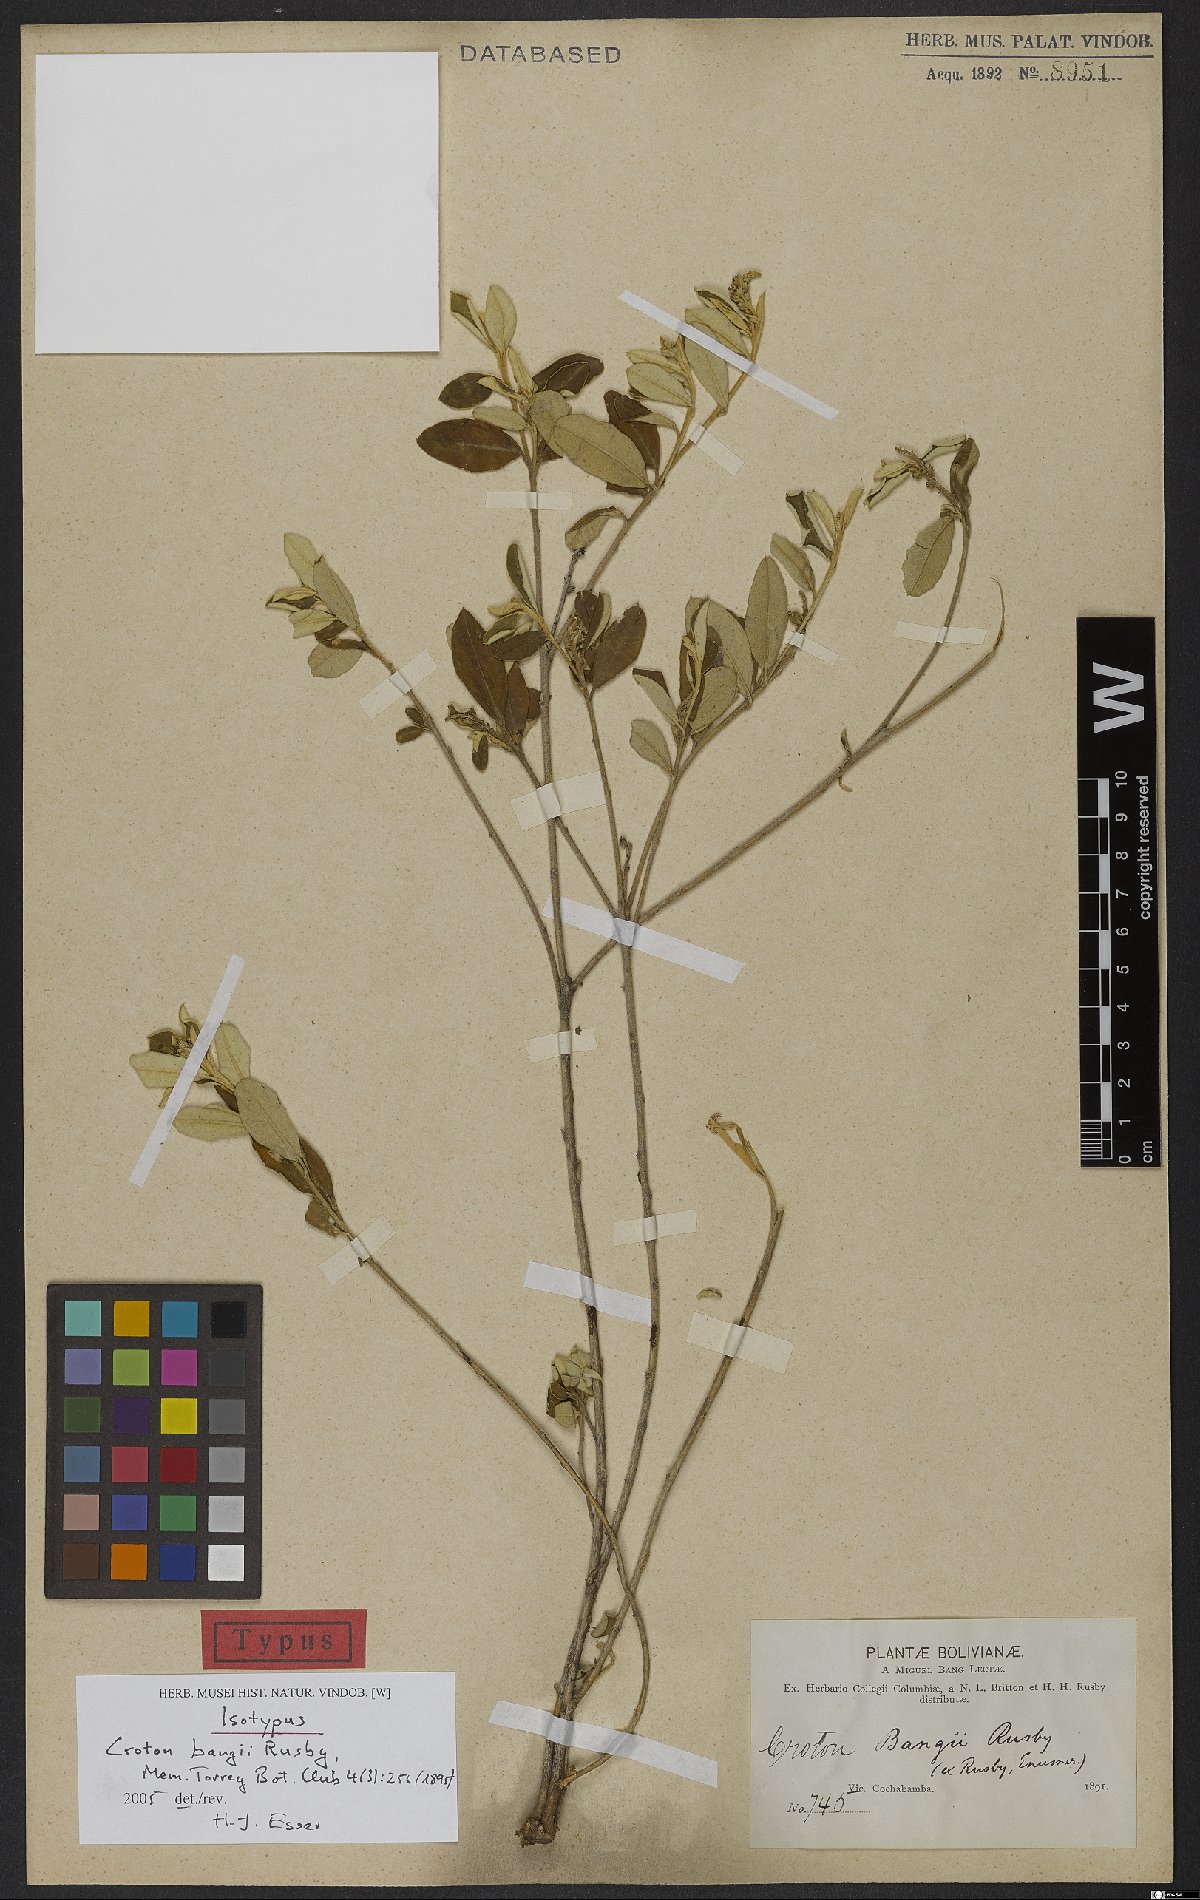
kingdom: Plantae
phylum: Tracheophyta
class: Magnoliopsida
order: Malpighiales
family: Euphorbiaceae
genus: Croton
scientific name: Croton bangii
